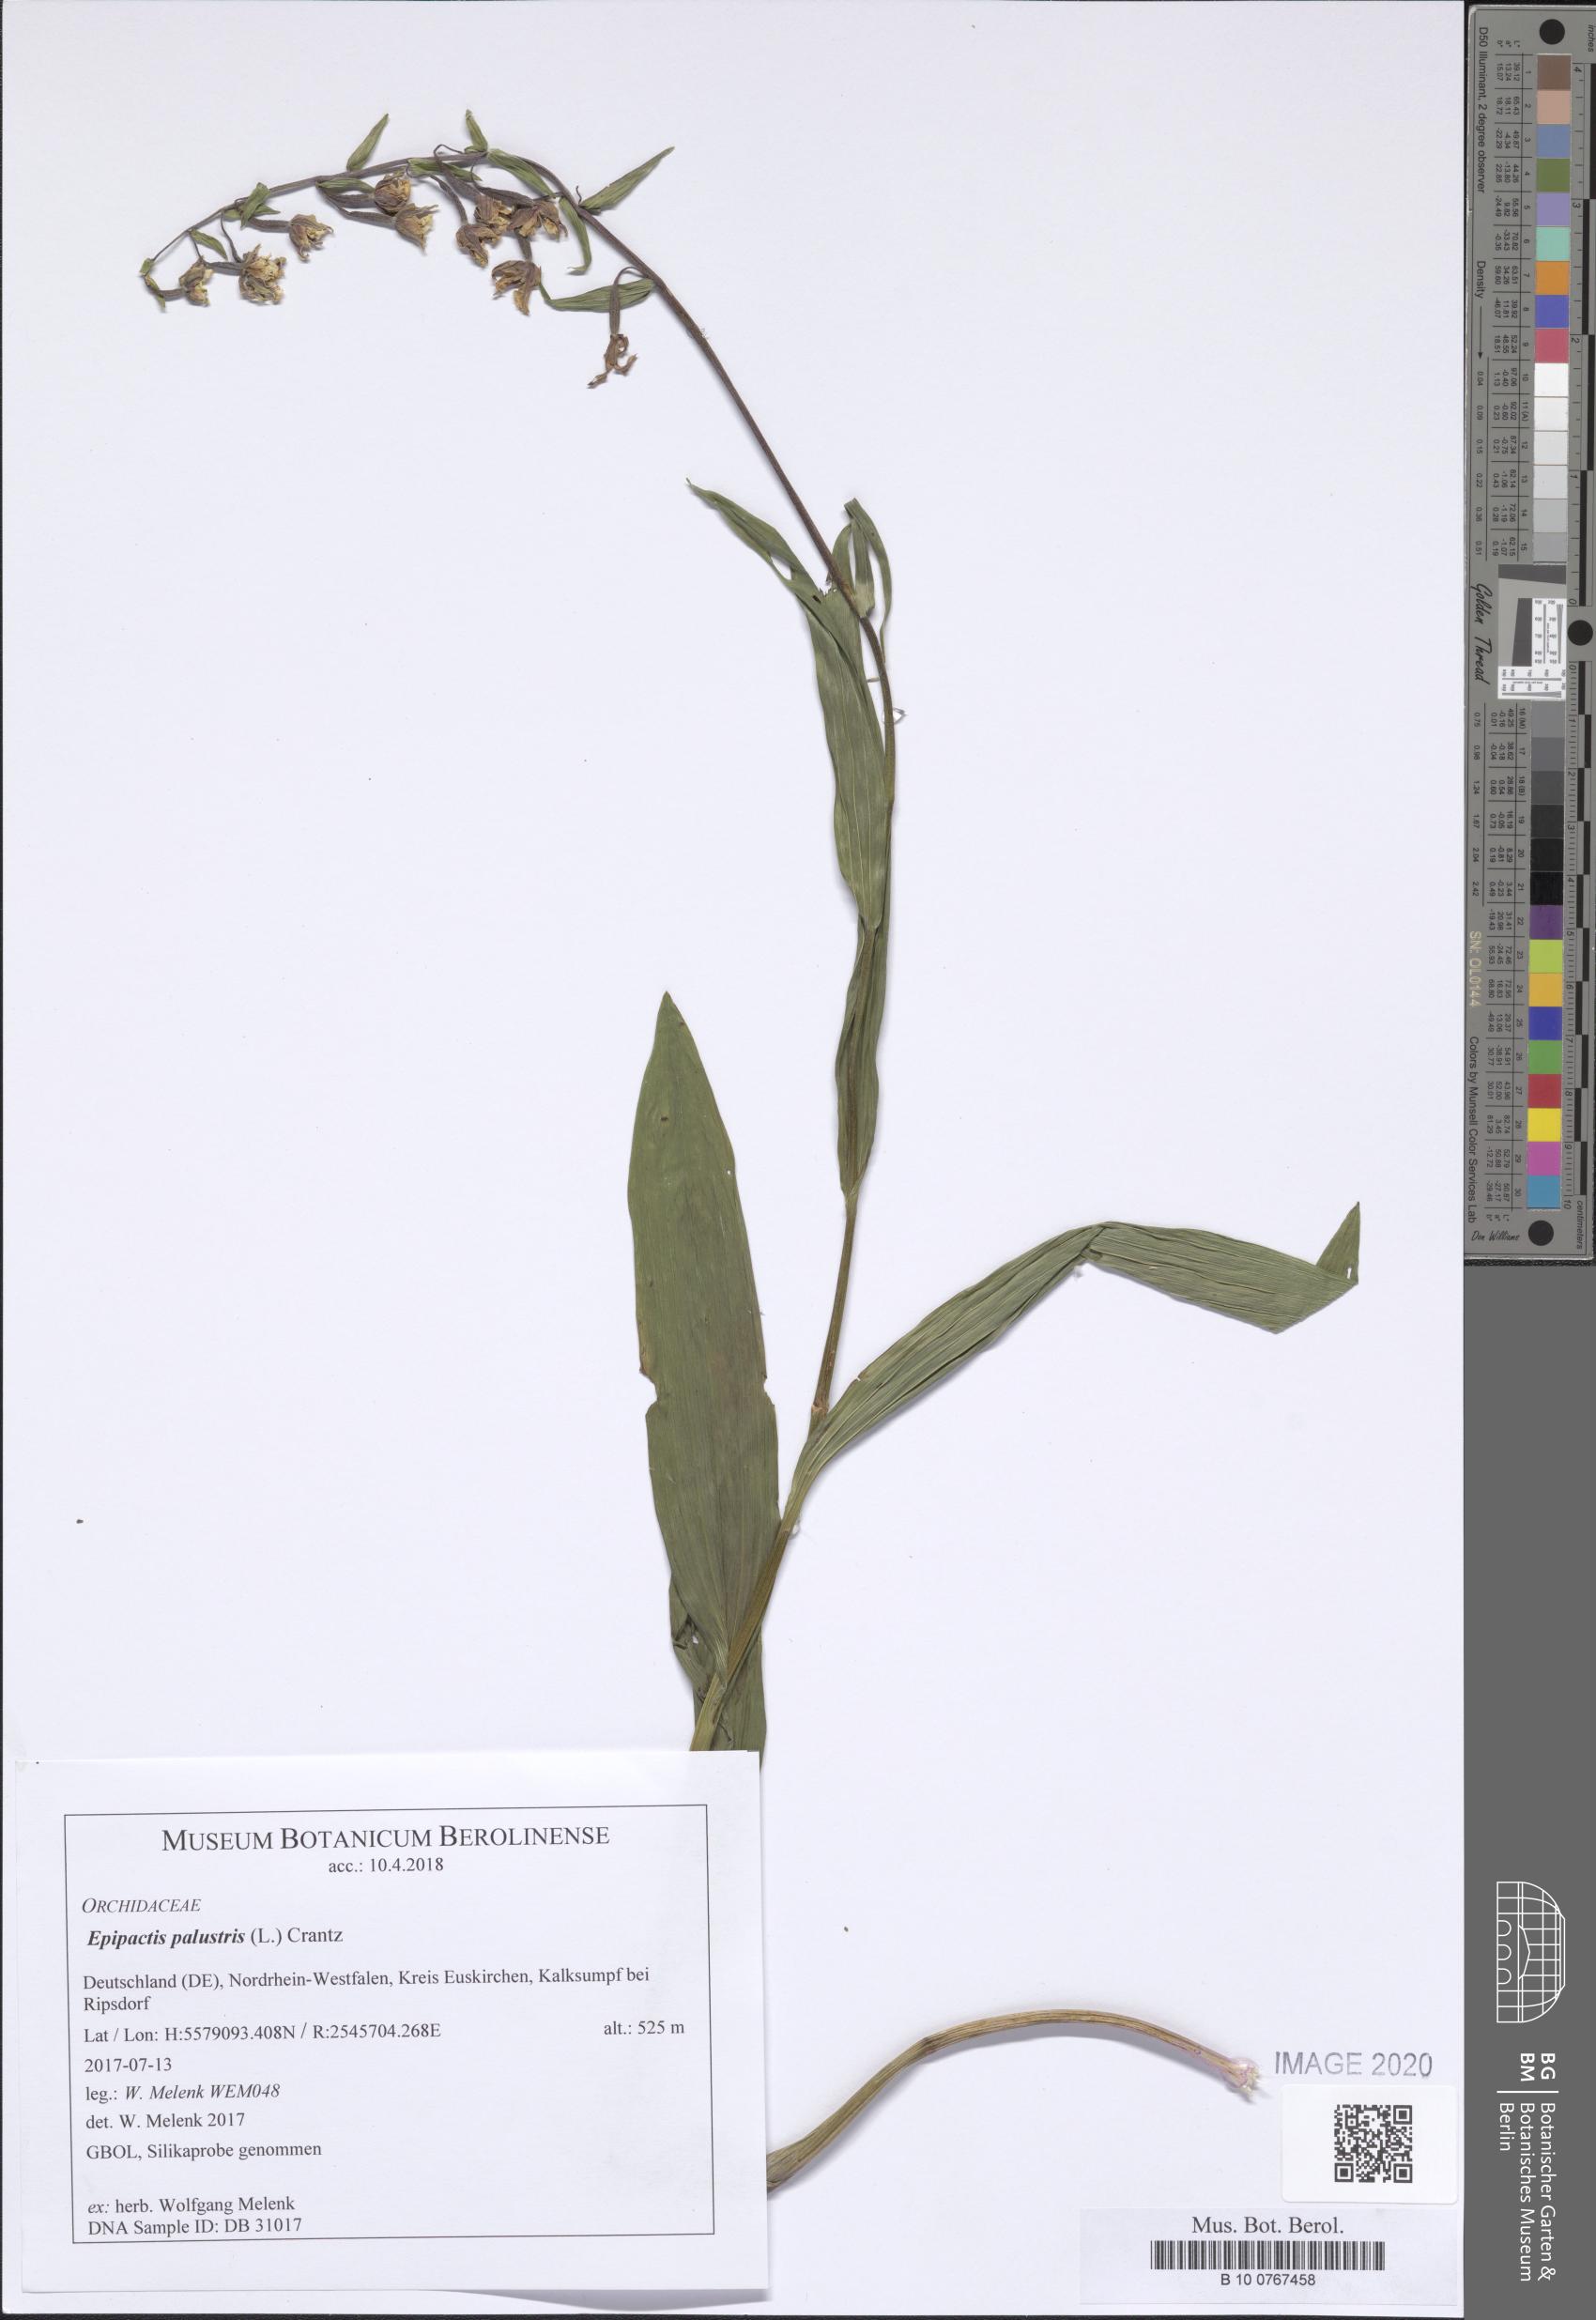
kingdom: Plantae
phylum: Tracheophyta
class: Liliopsida
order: Asparagales
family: Orchidaceae
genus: Epipactis
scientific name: Epipactis palustris
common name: Marsh helleborine
